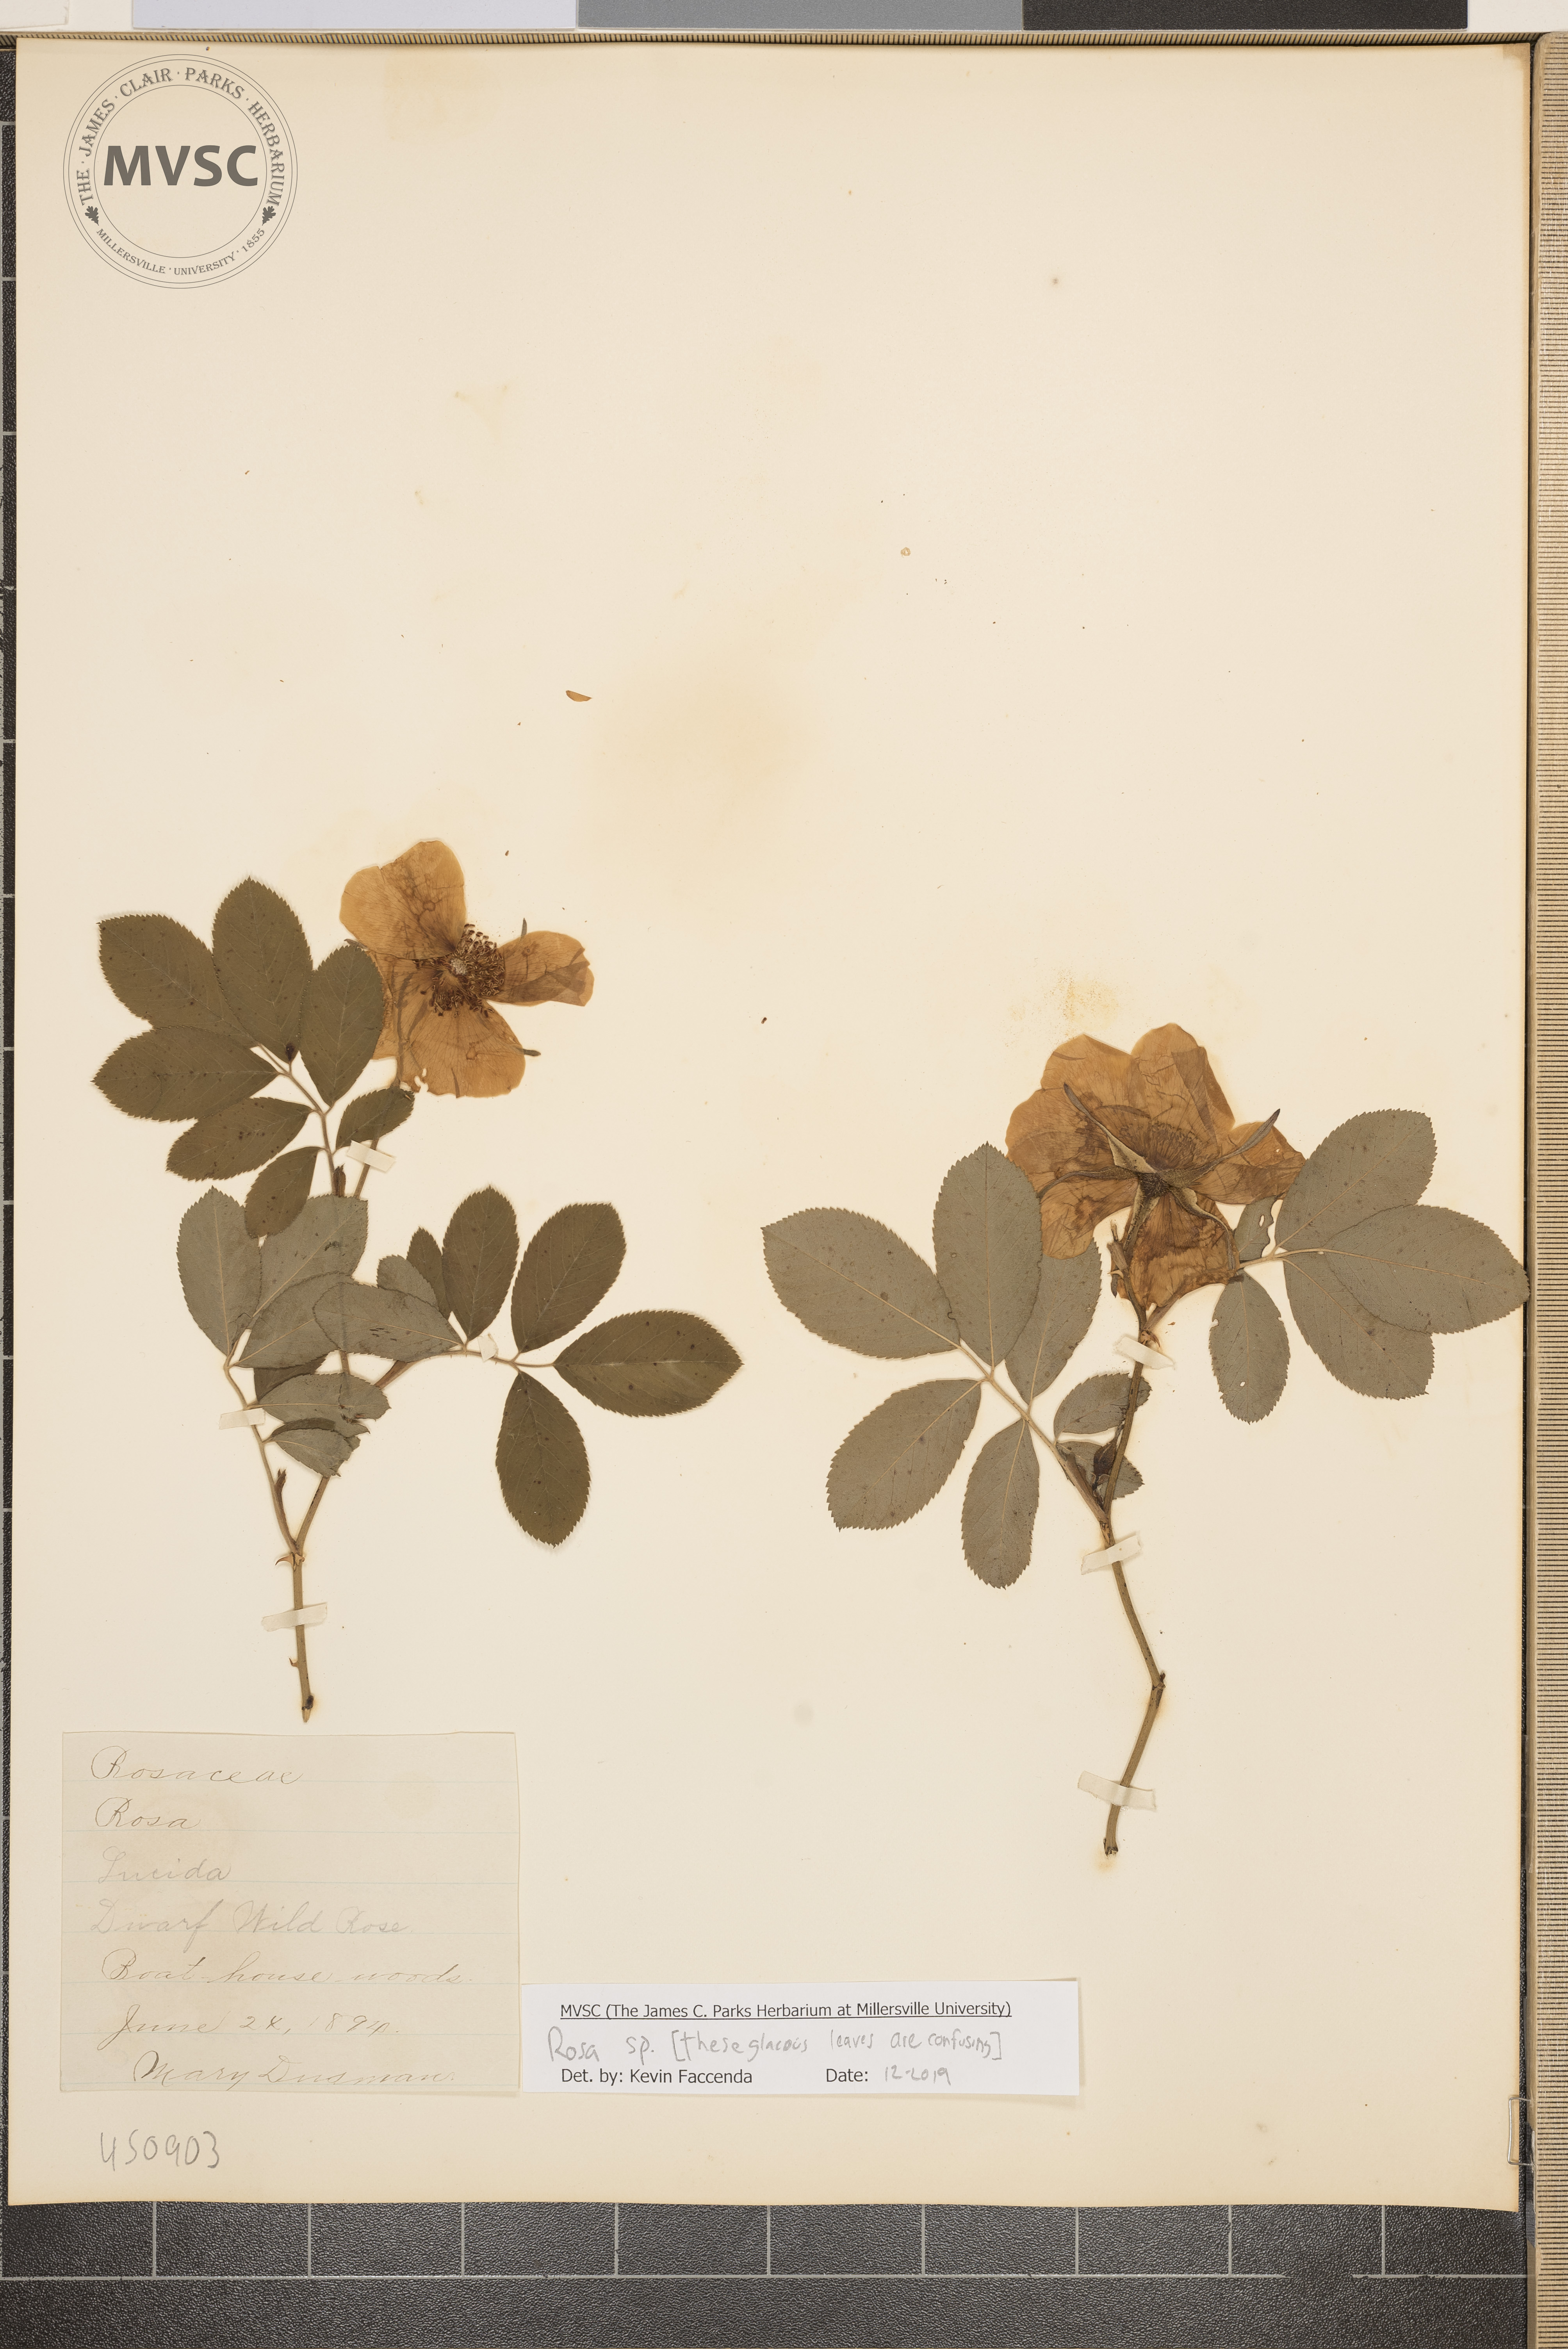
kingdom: Plantae
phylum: Tracheophyta
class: Magnoliopsida
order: Rosales
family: Rosaceae
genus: Rosa
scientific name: Rosa
